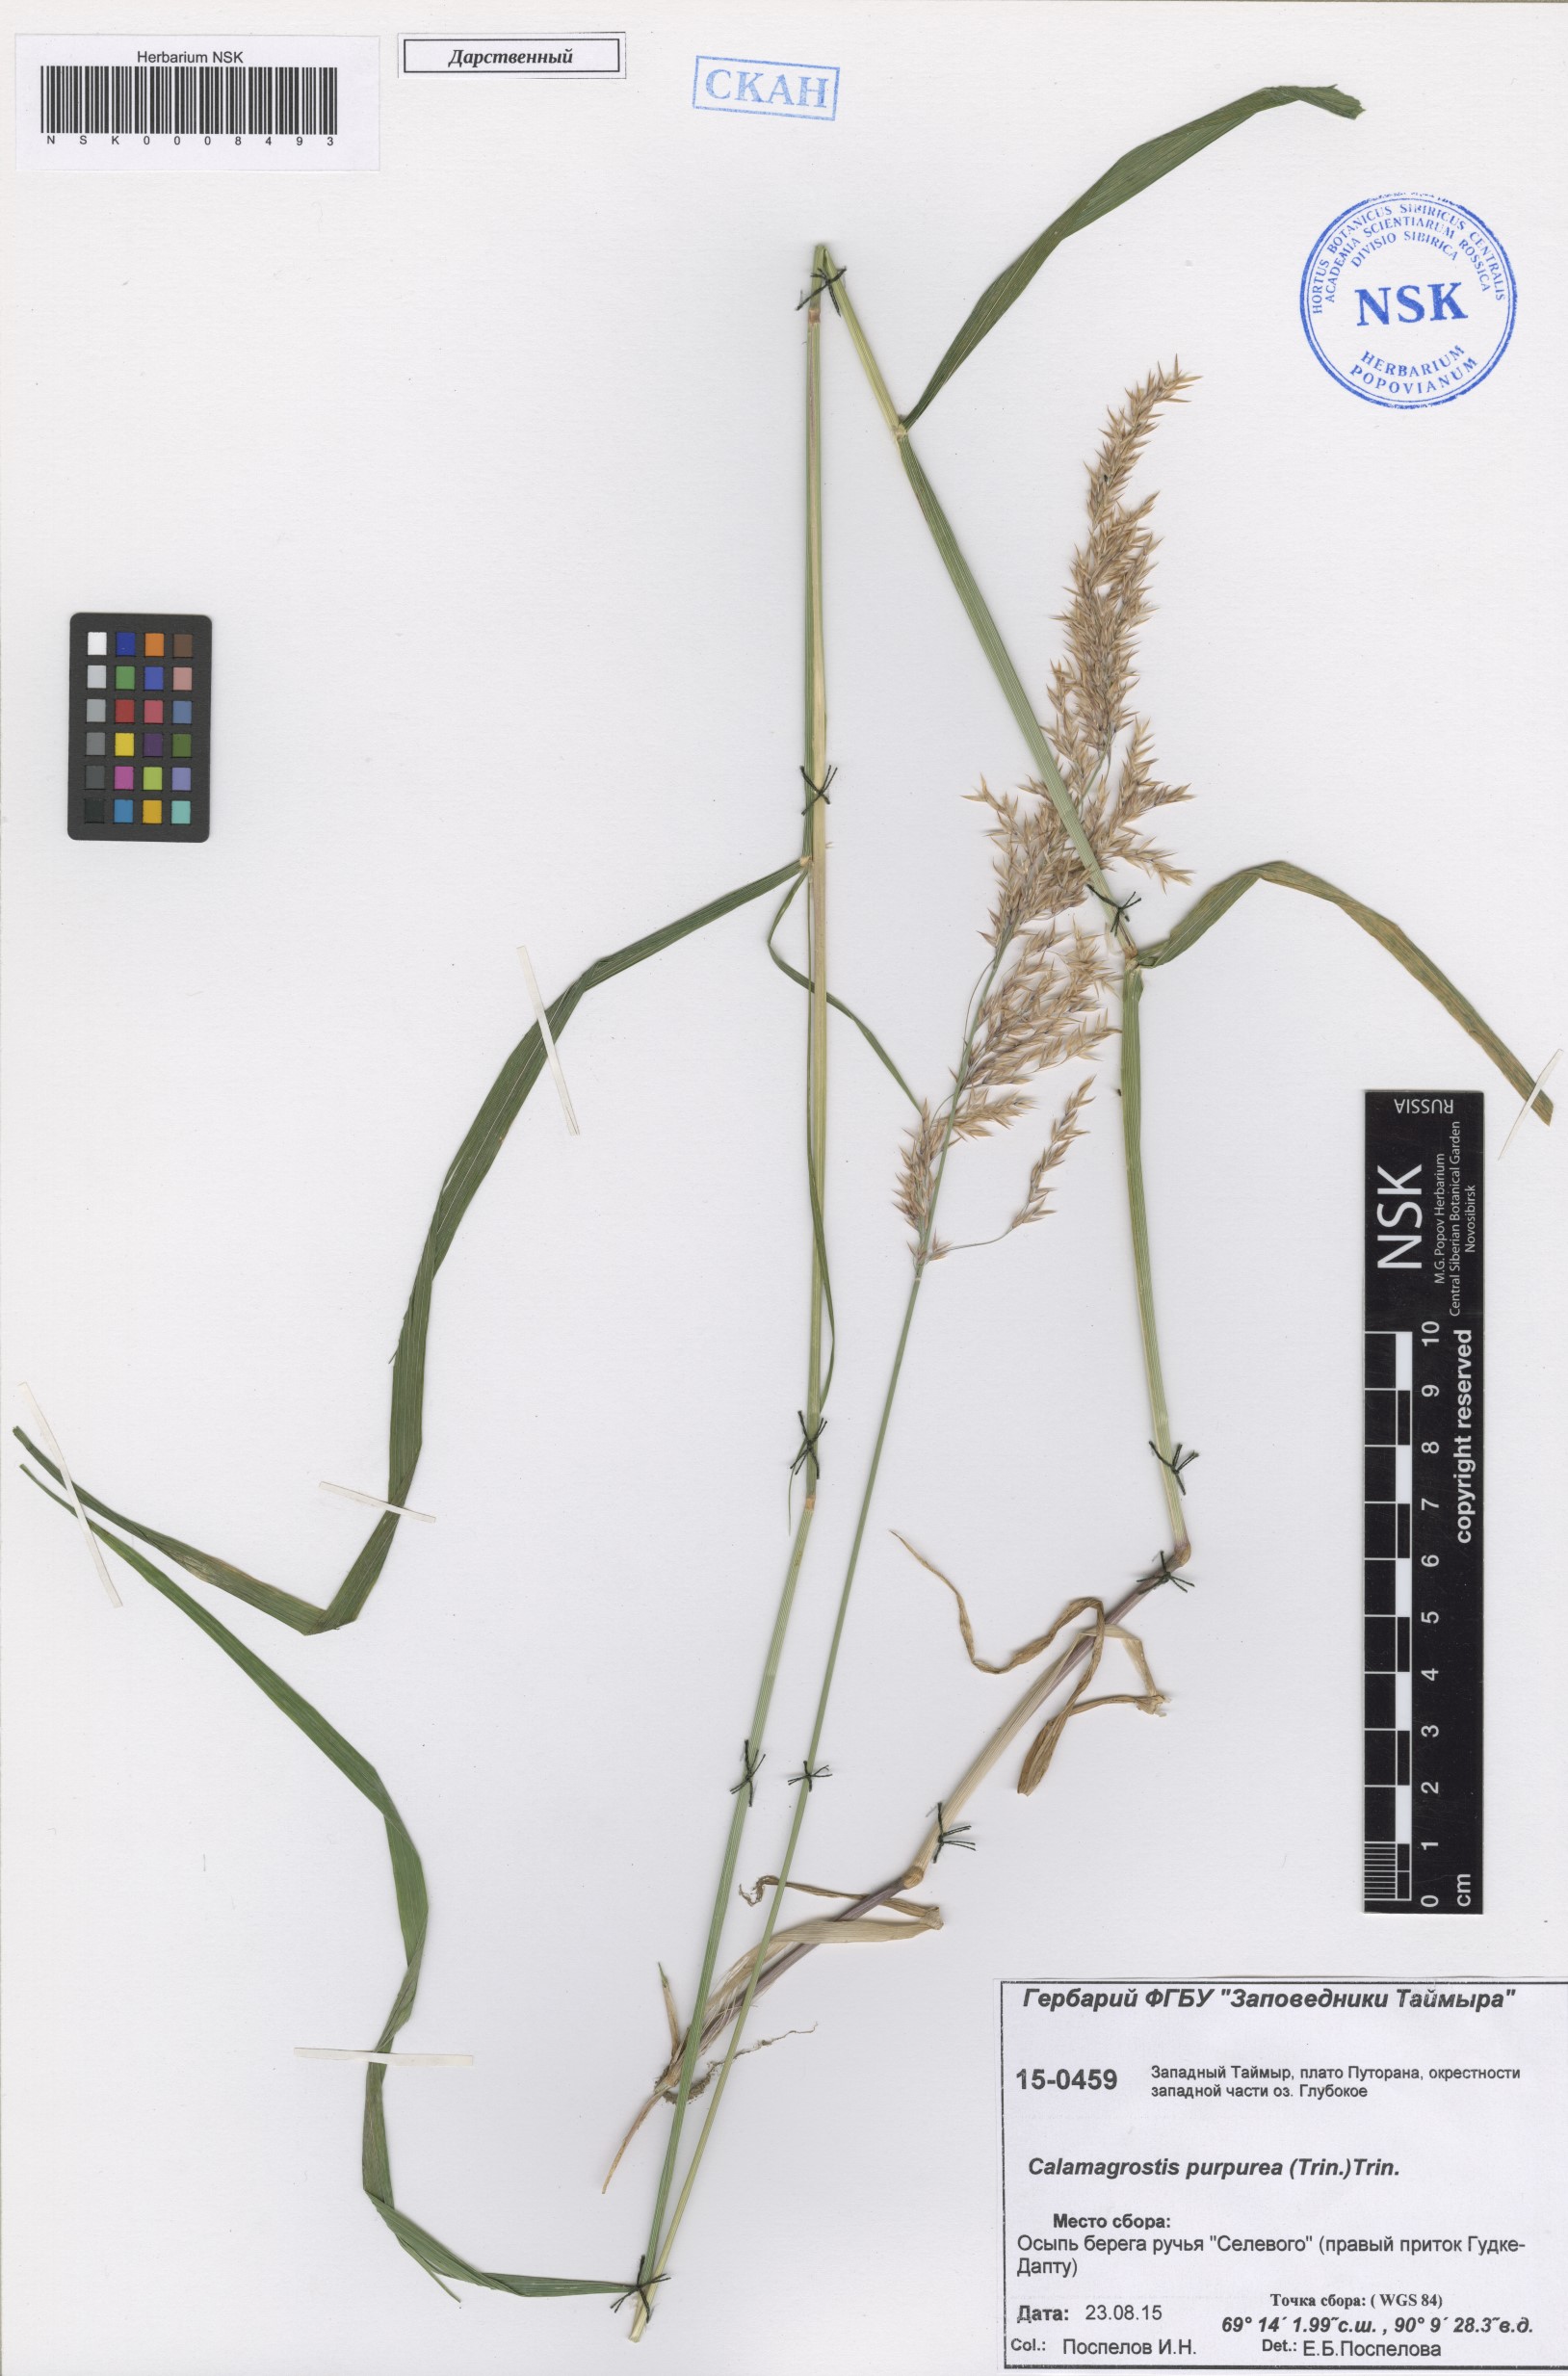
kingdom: Plantae
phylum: Tracheophyta
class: Liliopsida
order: Poales
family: Poaceae
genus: Calamagrostis
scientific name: Calamagrostis purpurea
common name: Scandinavian small-reed
